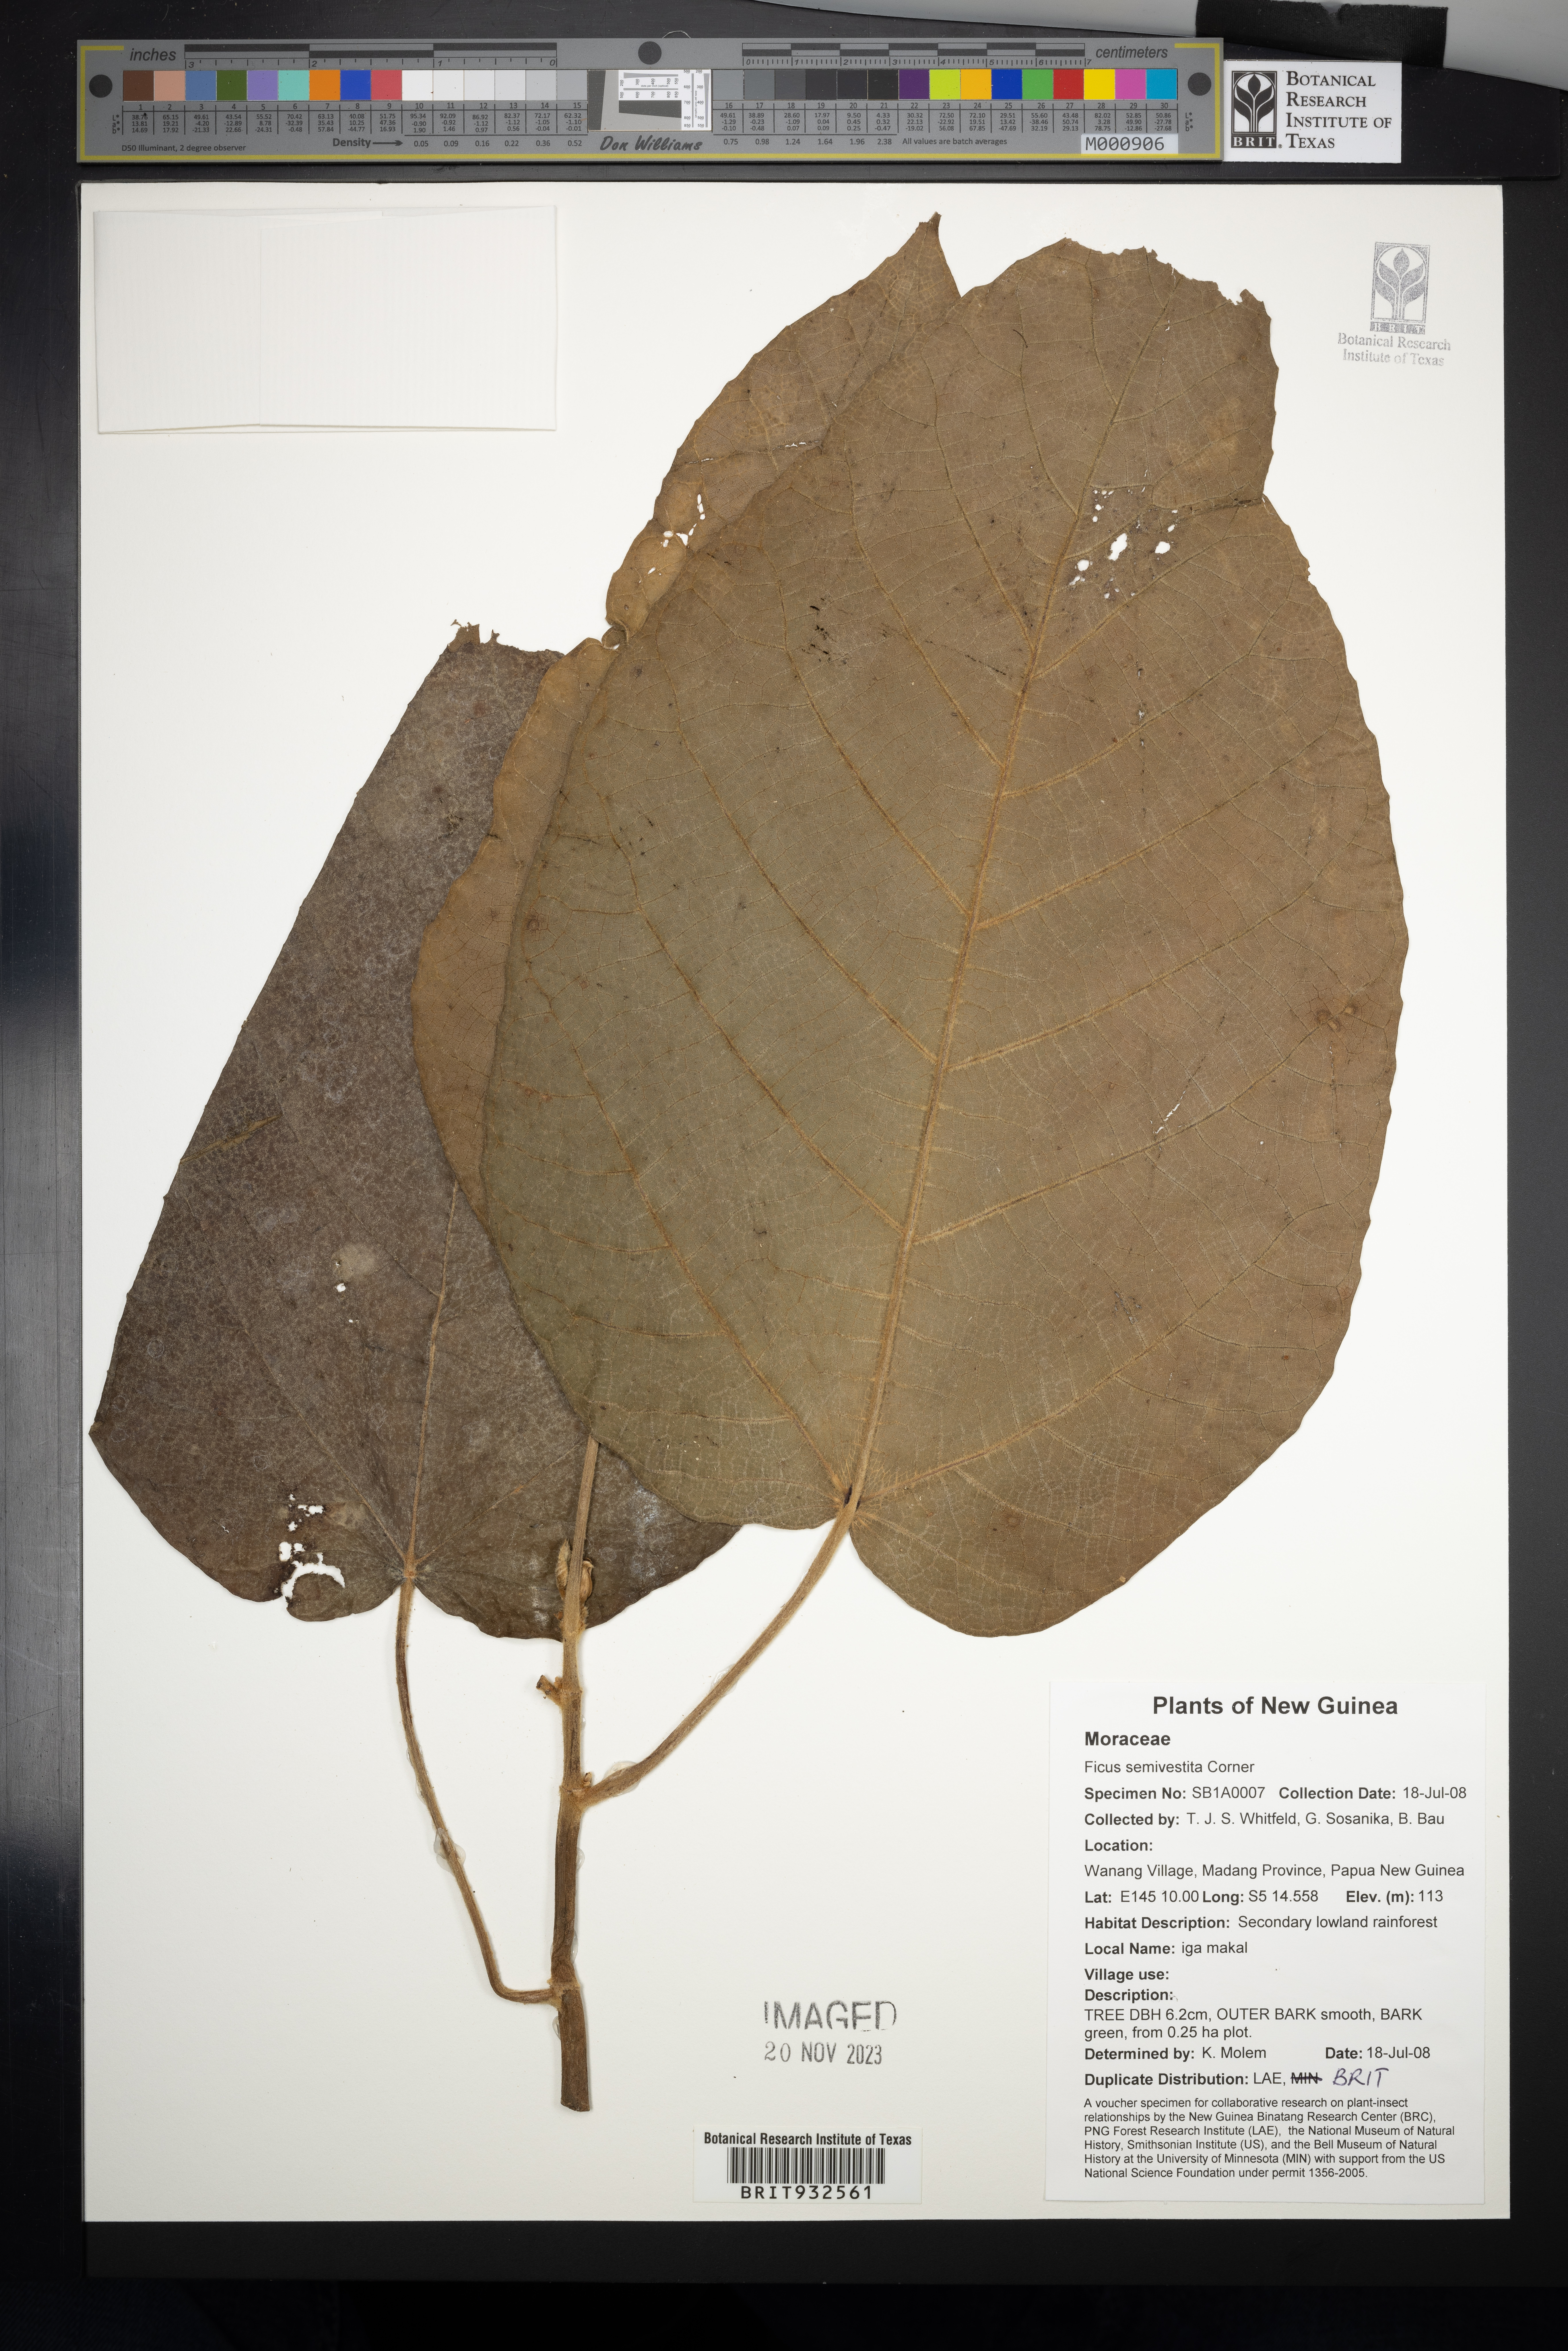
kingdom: Plantae
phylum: Tracheophyta
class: Magnoliopsida
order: Rosales
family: Moraceae
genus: Ficus
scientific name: Ficus semivestita
